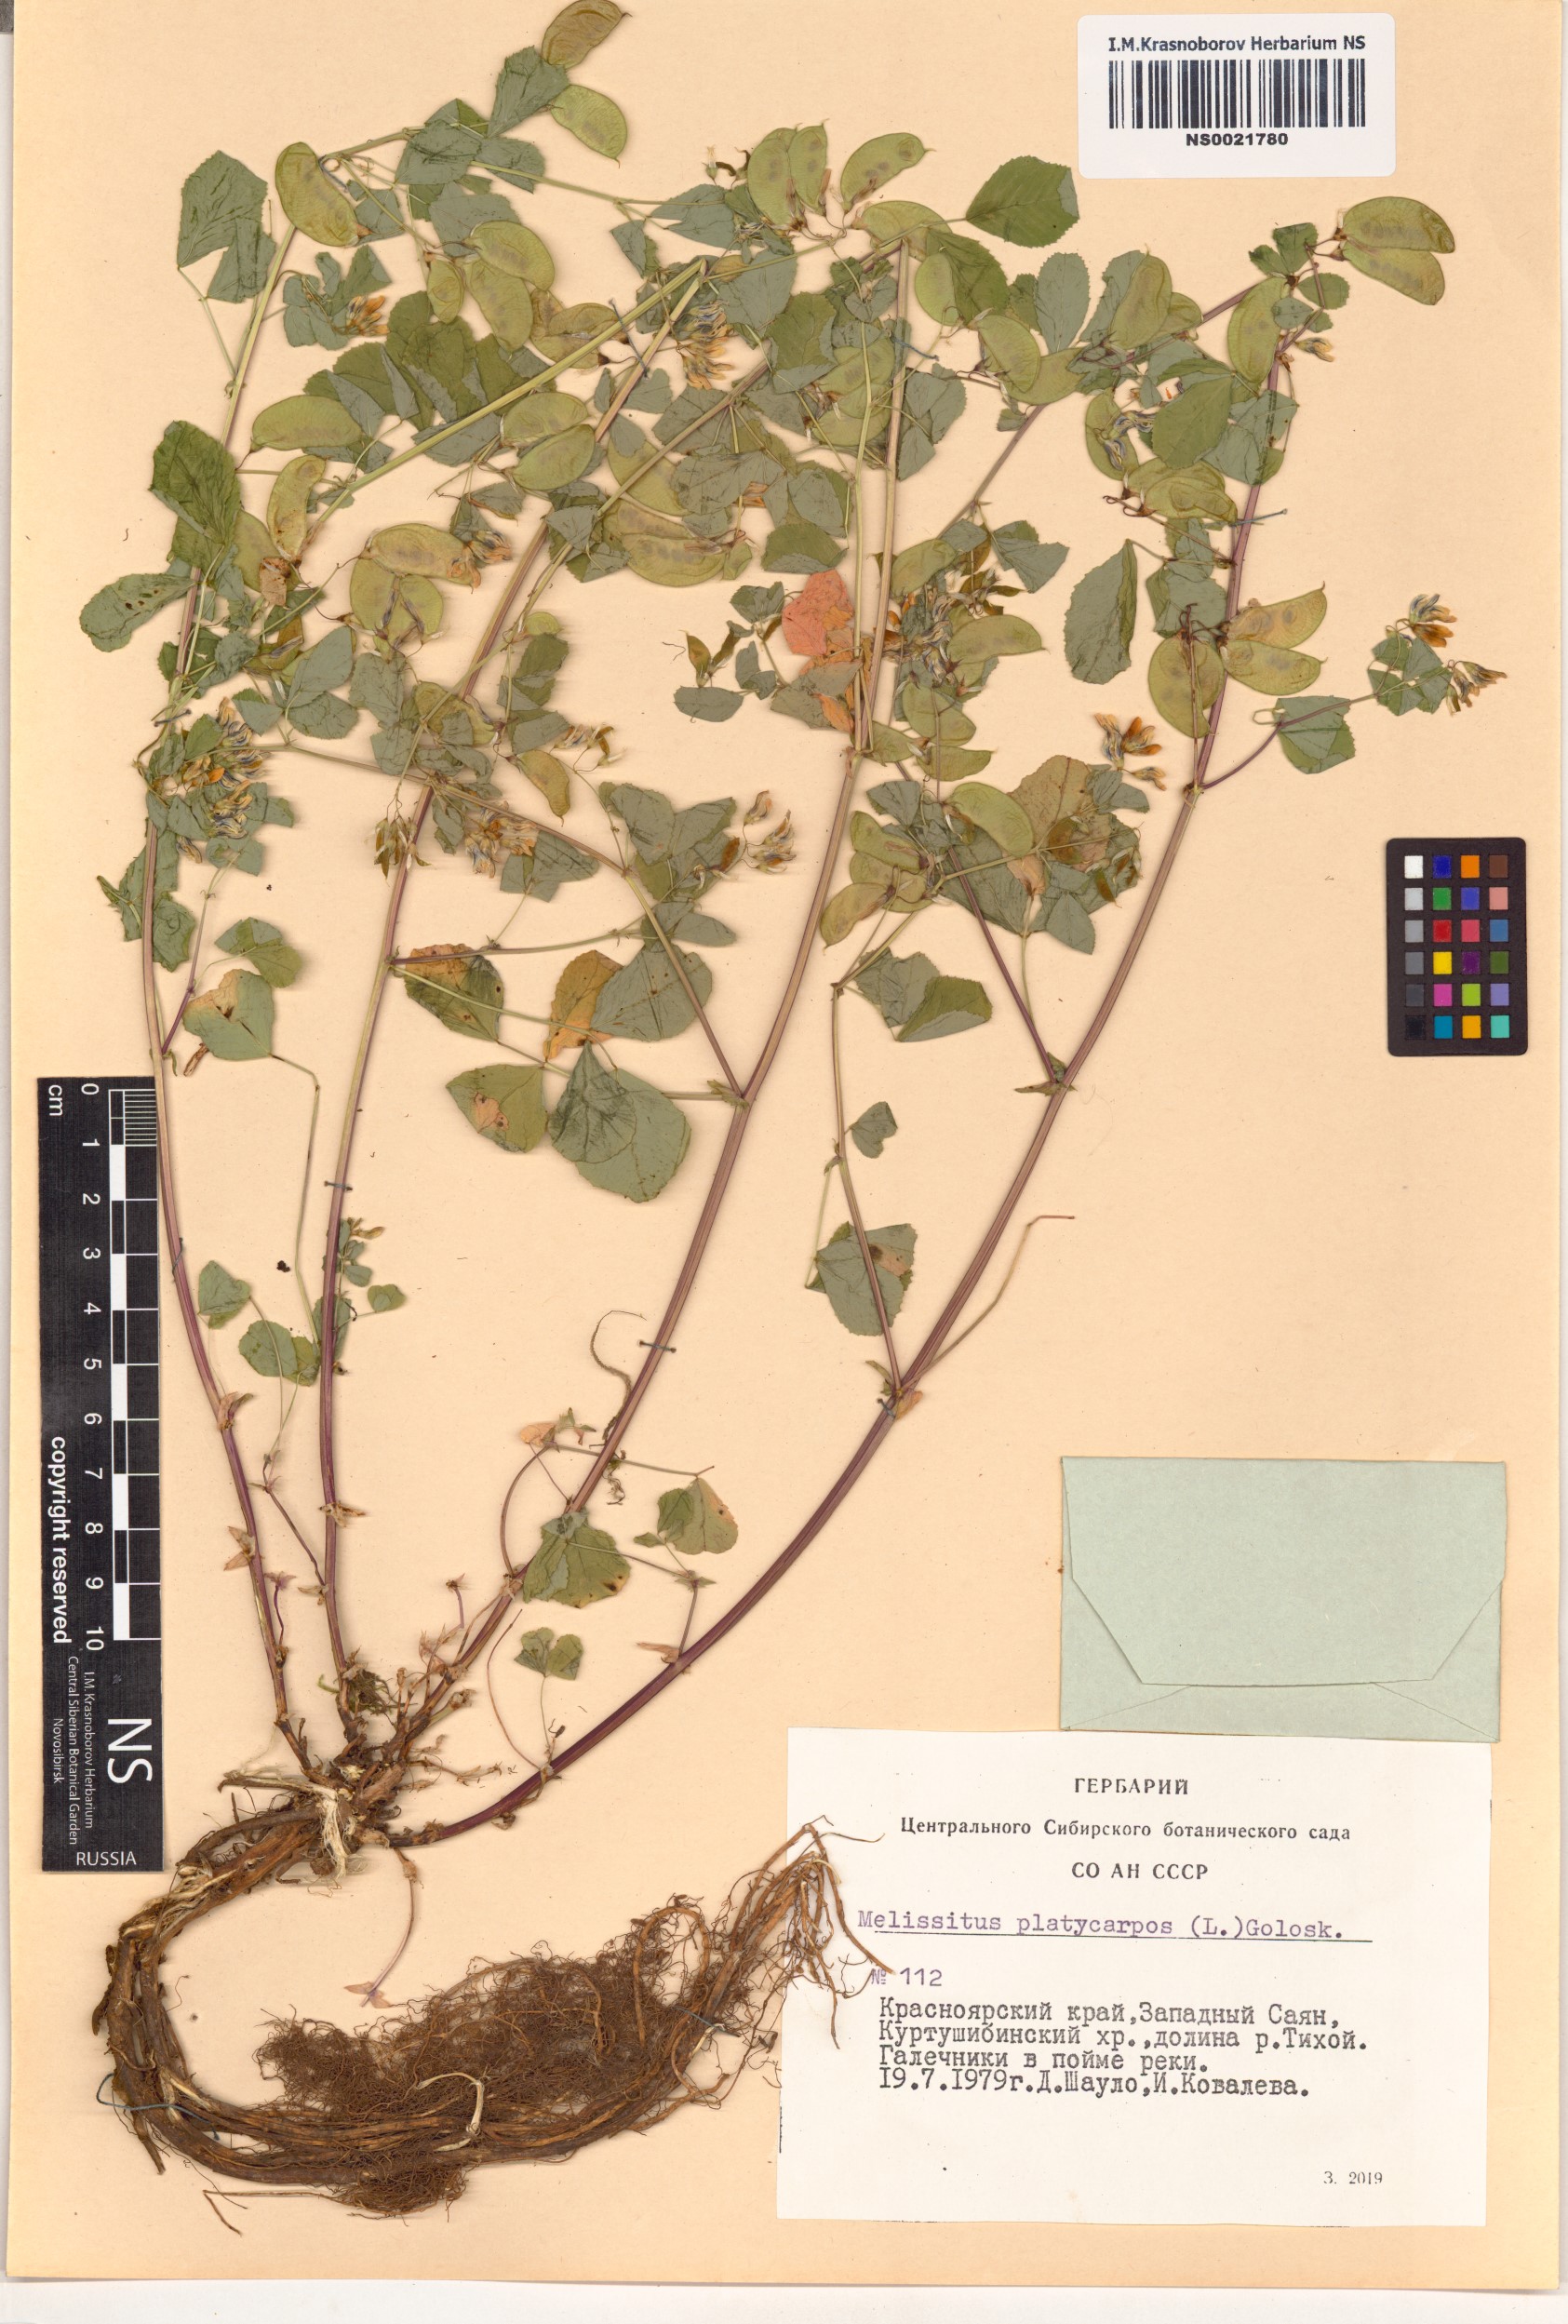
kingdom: Plantae
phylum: Tracheophyta
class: Magnoliopsida
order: Fabales
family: Fabaceae
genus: Medicago
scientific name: Medicago platycarpos
